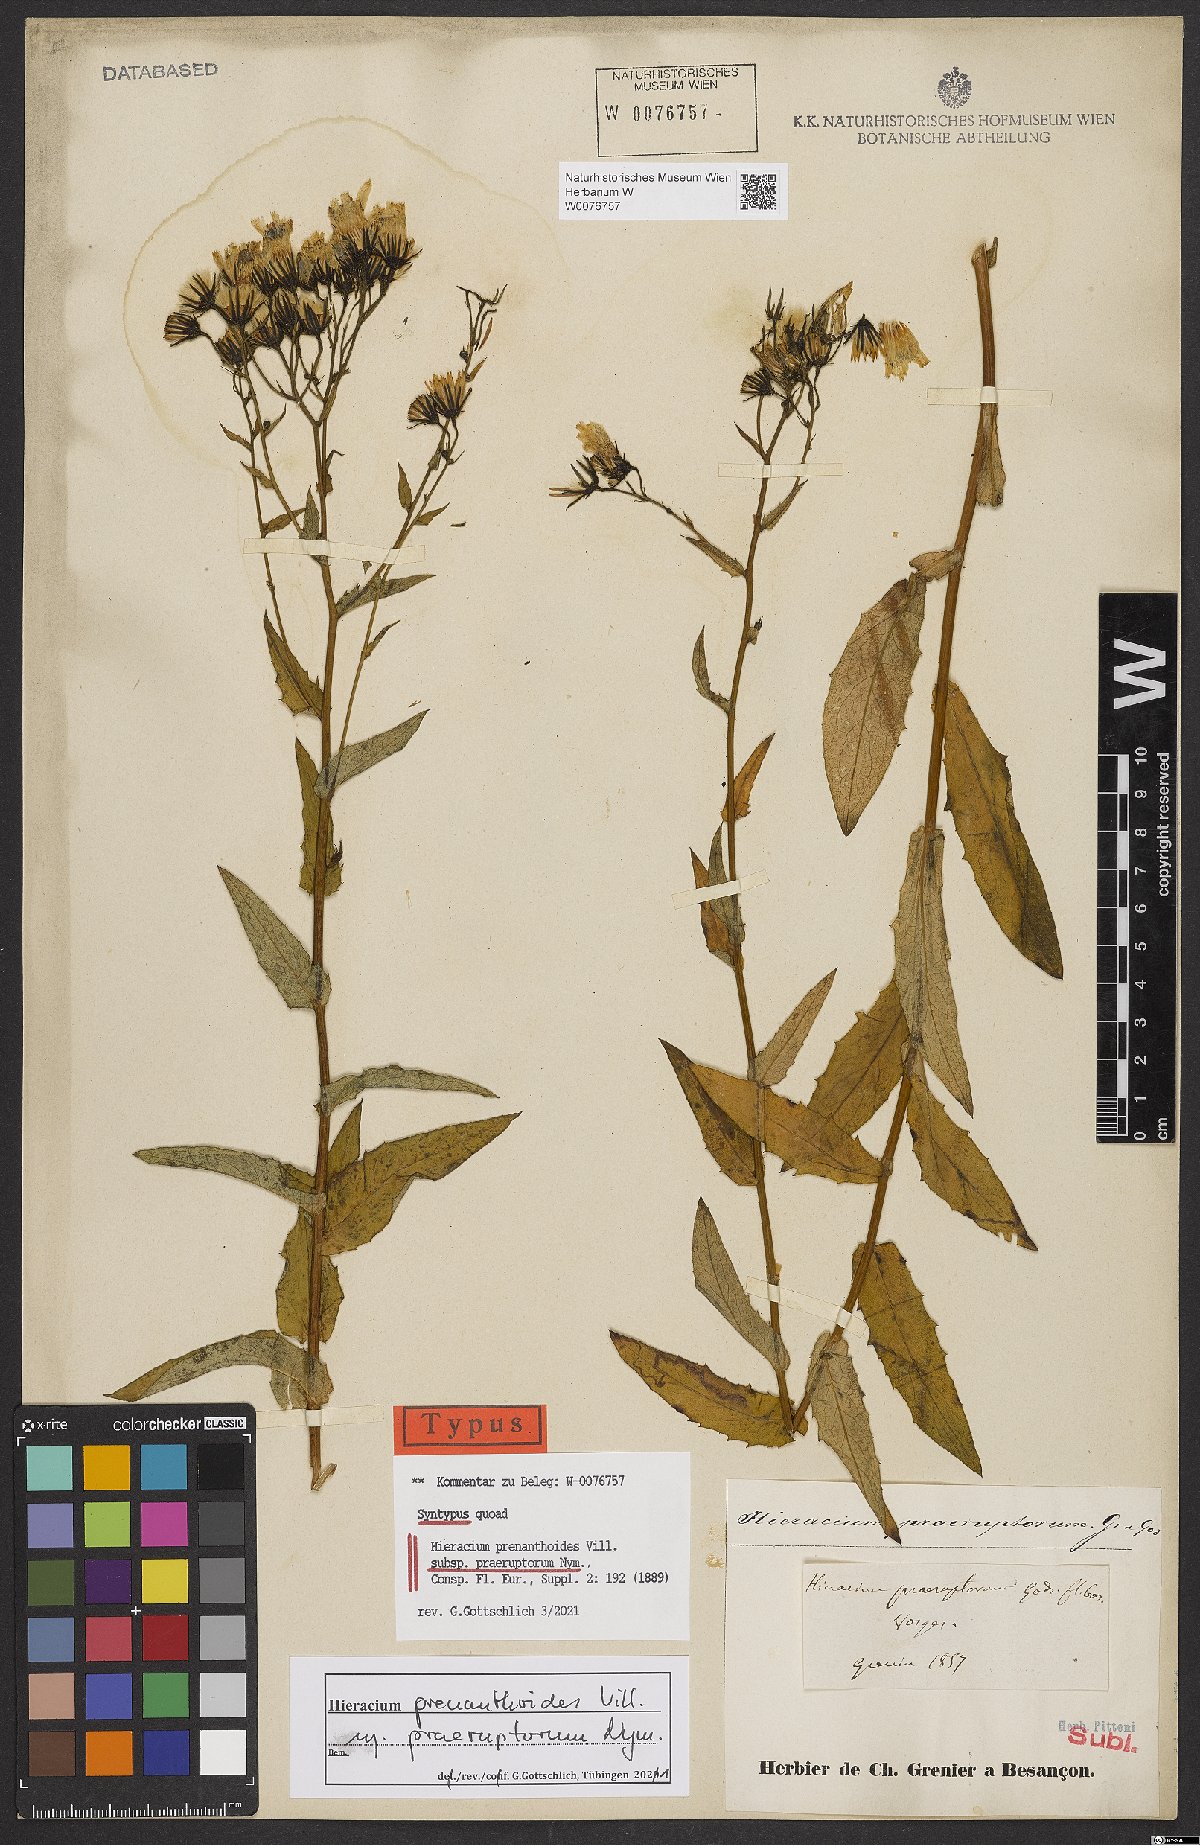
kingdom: Plantae
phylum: Tracheophyta
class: Magnoliopsida
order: Asterales
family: Asteraceae
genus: Hieracium
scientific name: Hieracium prenanthoides
